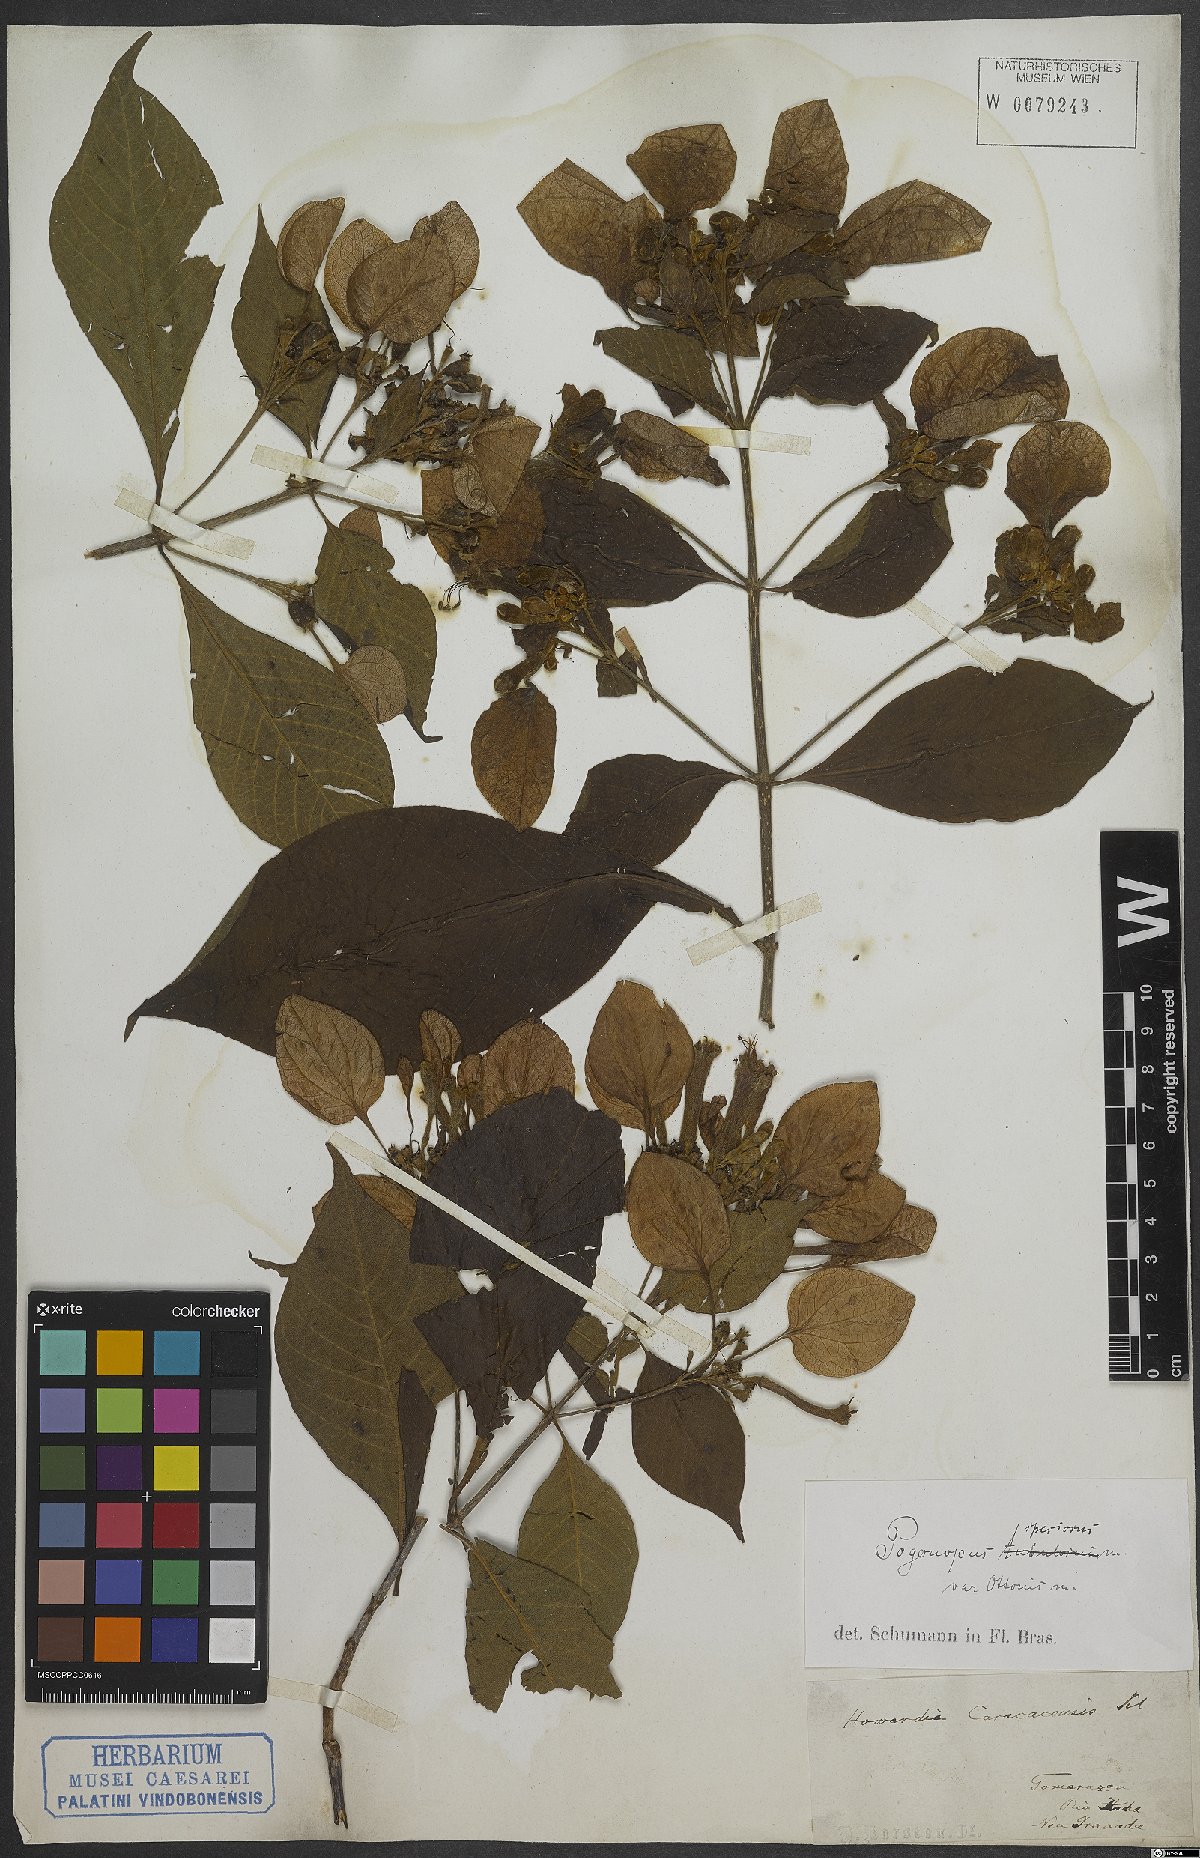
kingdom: Plantae
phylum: Tracheophyta
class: Magnoliopsida
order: Gentianales
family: Rubiaceae
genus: Pogonopus
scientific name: Pogonopus speciosus
